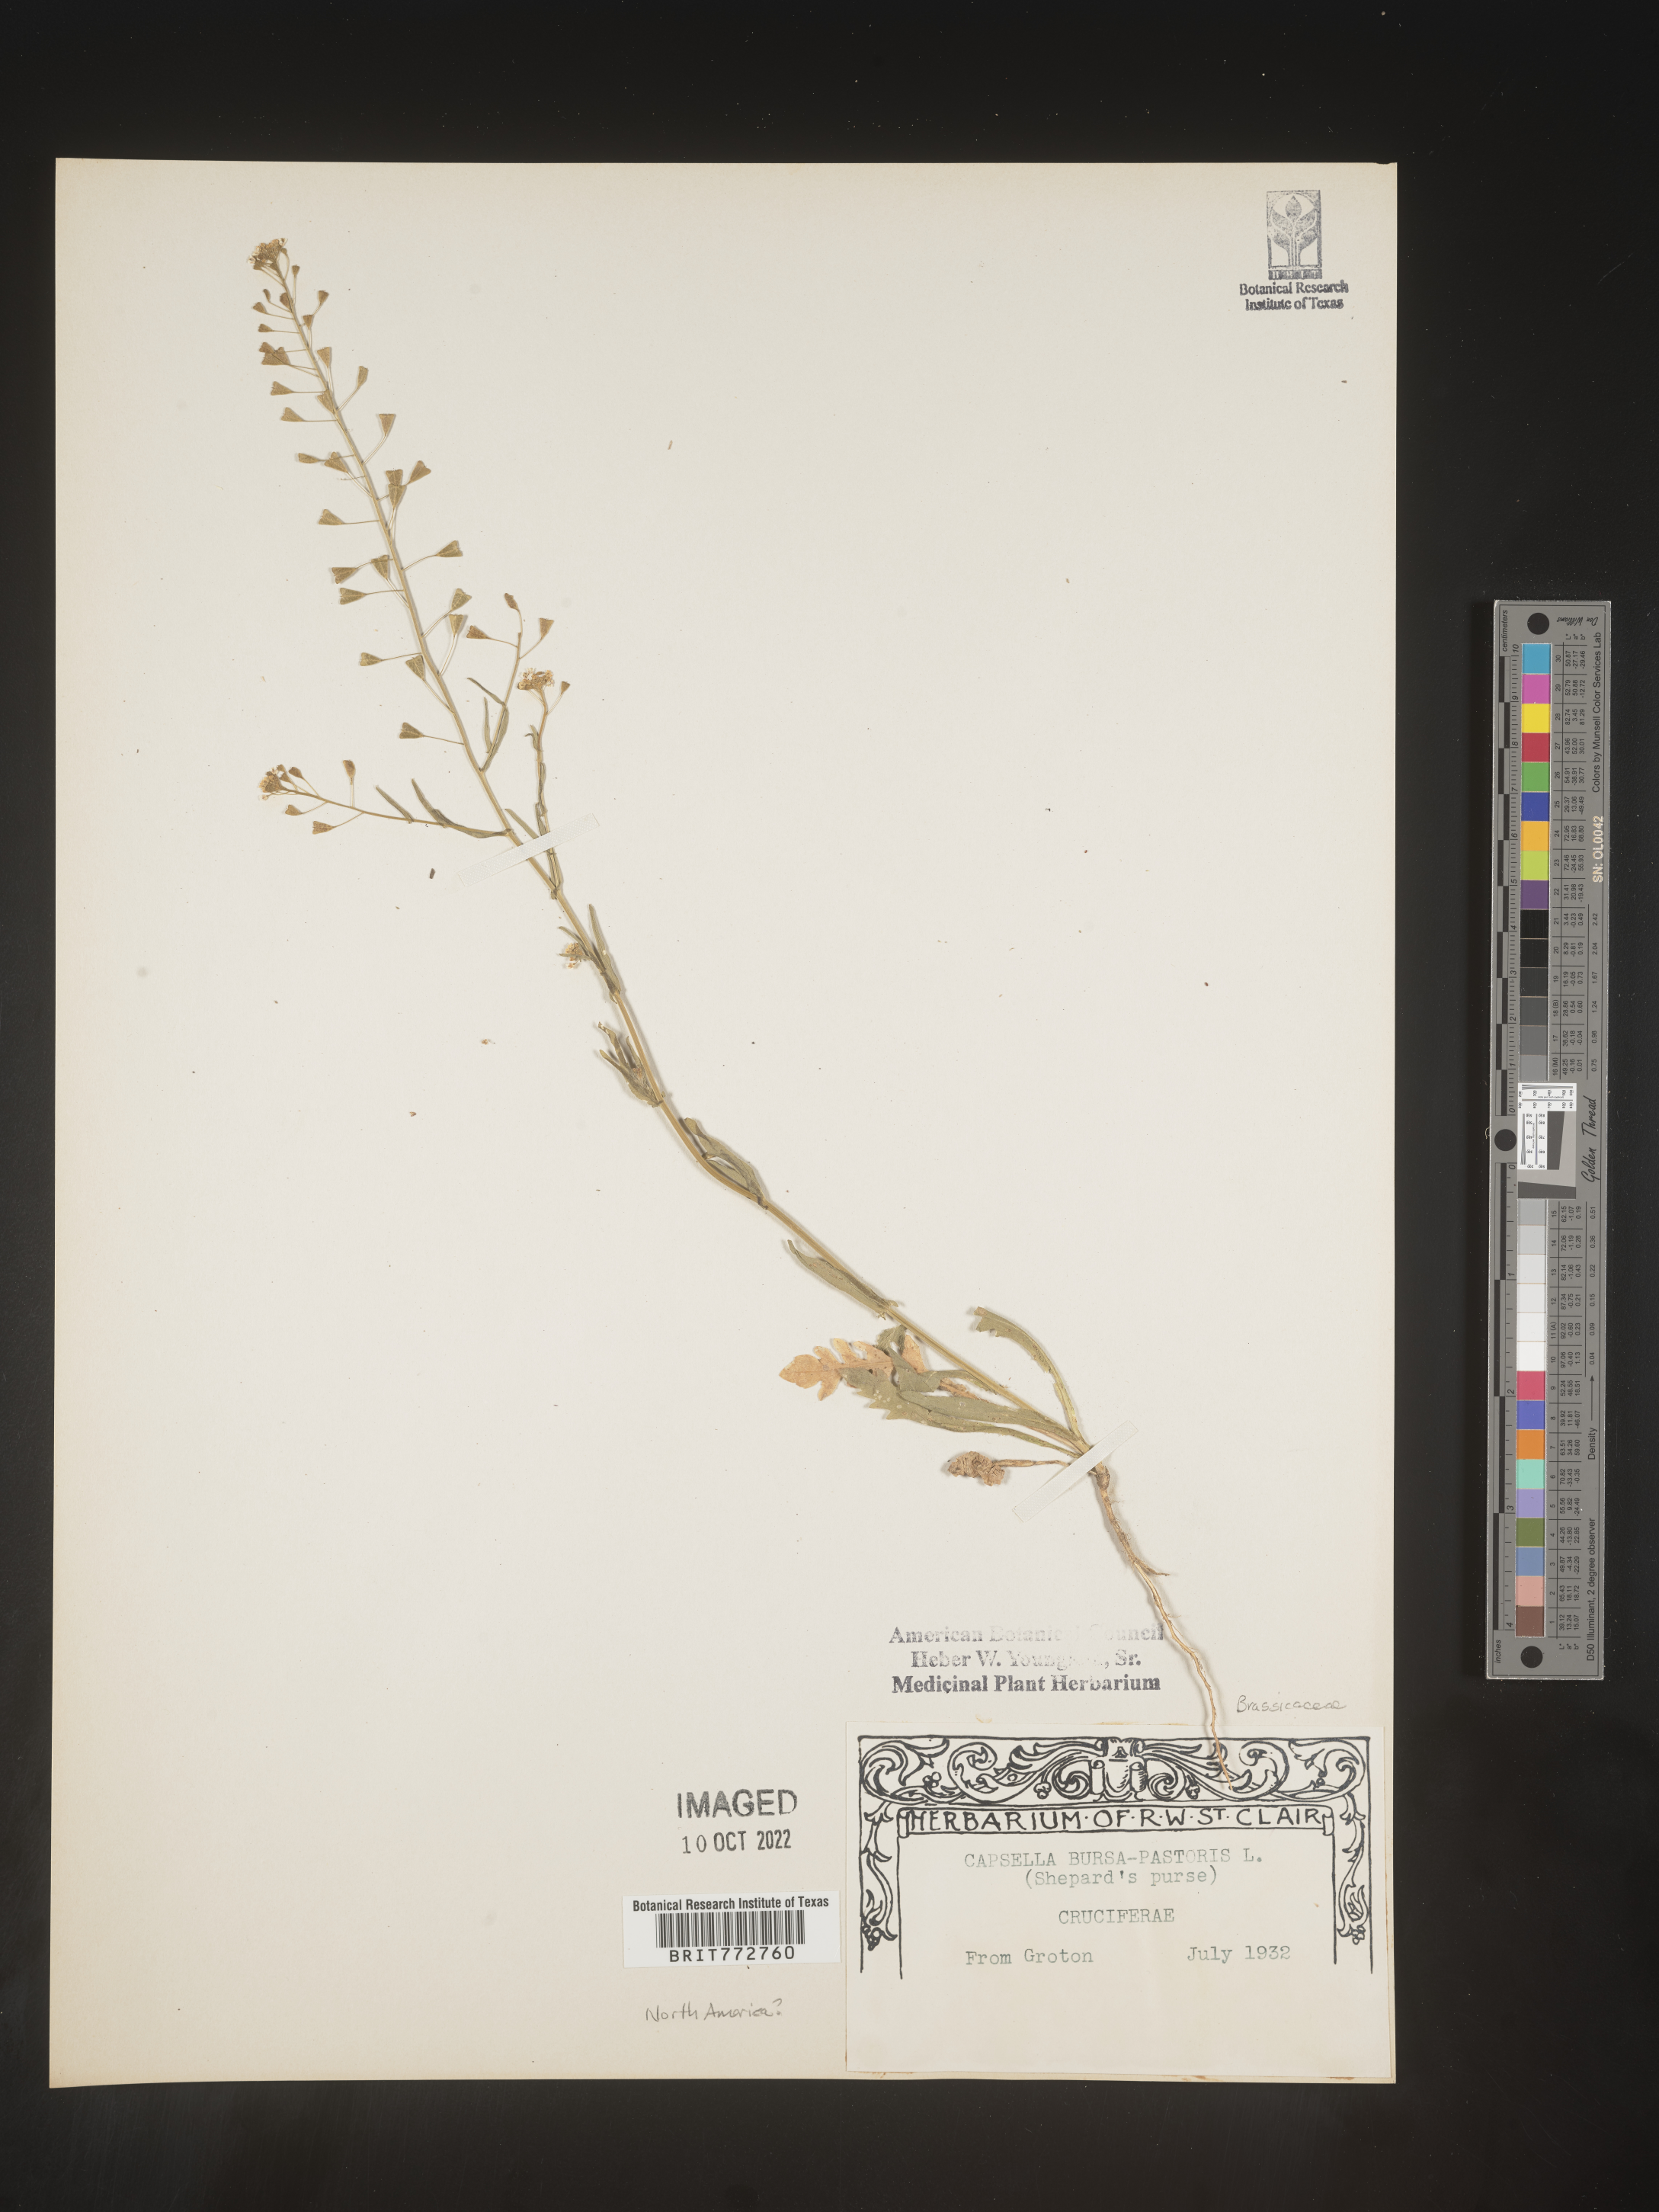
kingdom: Plantae
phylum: Tracheophyta
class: Magnoliopsida
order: Brassicales
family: Brassicaceae
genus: Capsella
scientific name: Capsella bursa-pastoris
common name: Shepherd's purse
